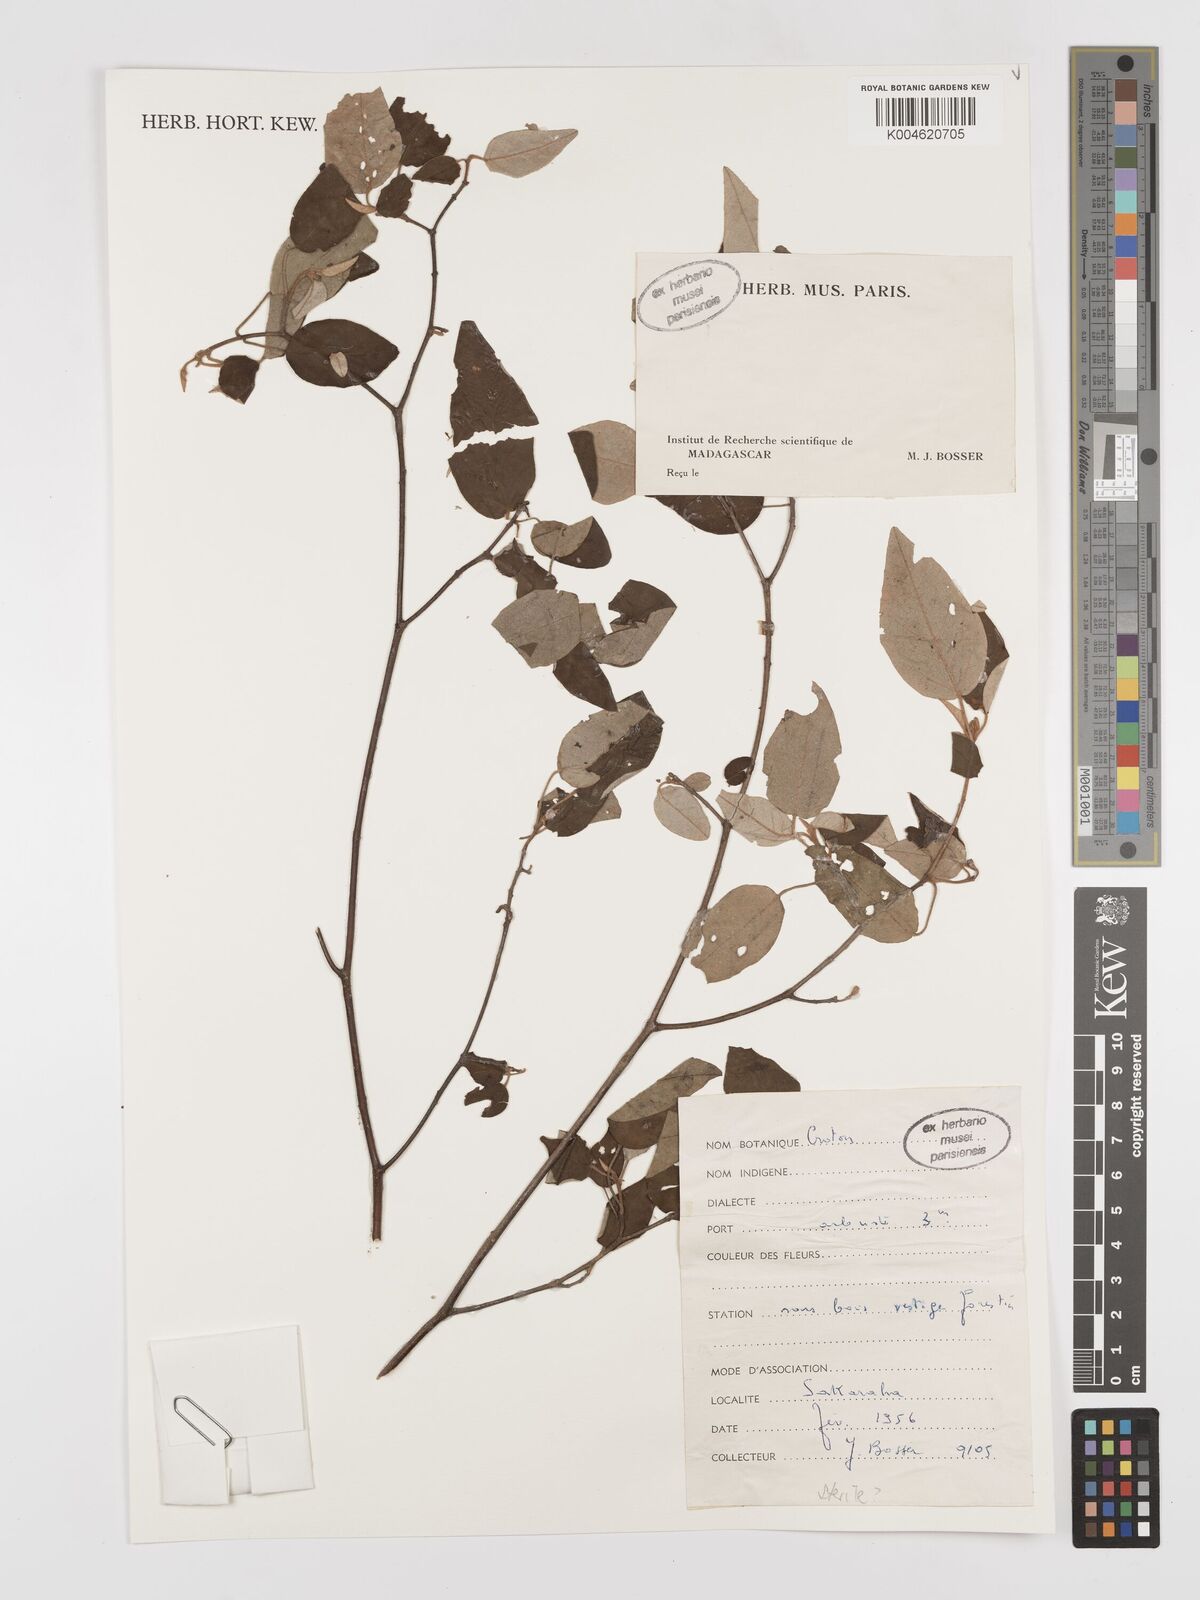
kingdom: Plantae
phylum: Tracheophyta
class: Magnoliopsida
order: Malpighiales
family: Euphorbiaceae
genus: Croton
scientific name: Croton
